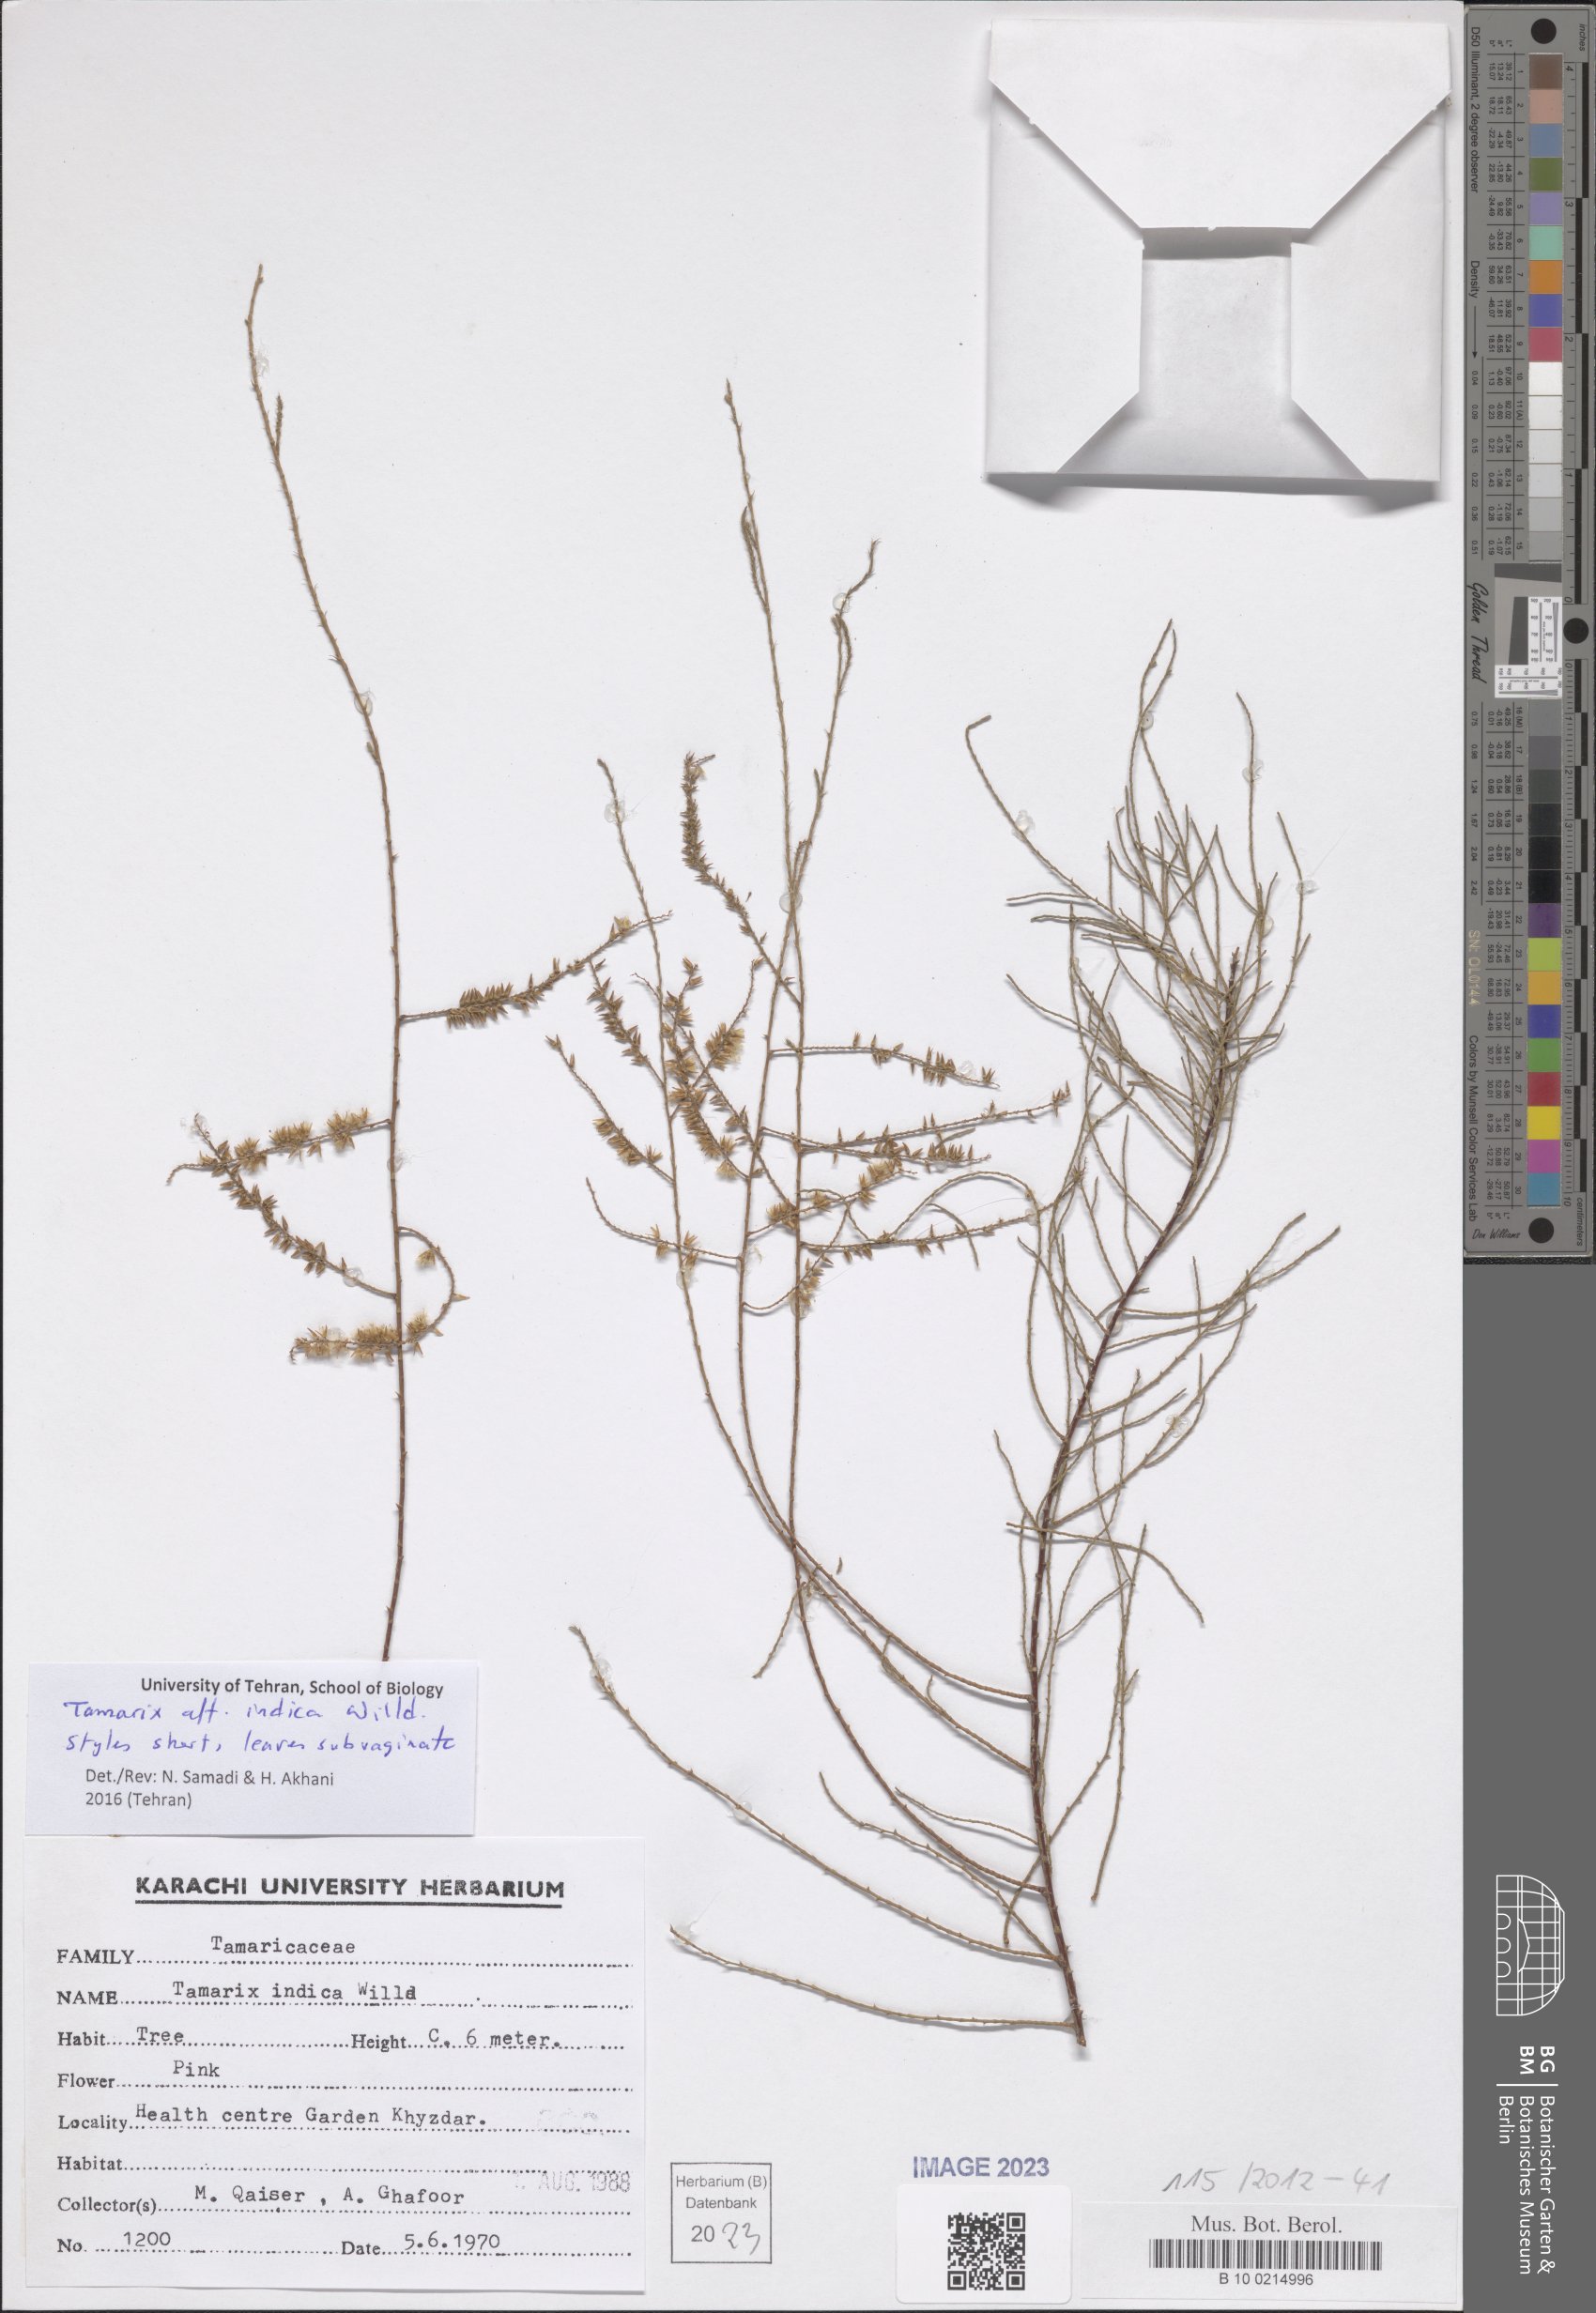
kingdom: Plantae
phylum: Tracheophyta
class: Magnoliopsida
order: Caryophyllales
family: Tamaricaceae
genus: Tamarix
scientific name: Tamarix indica
